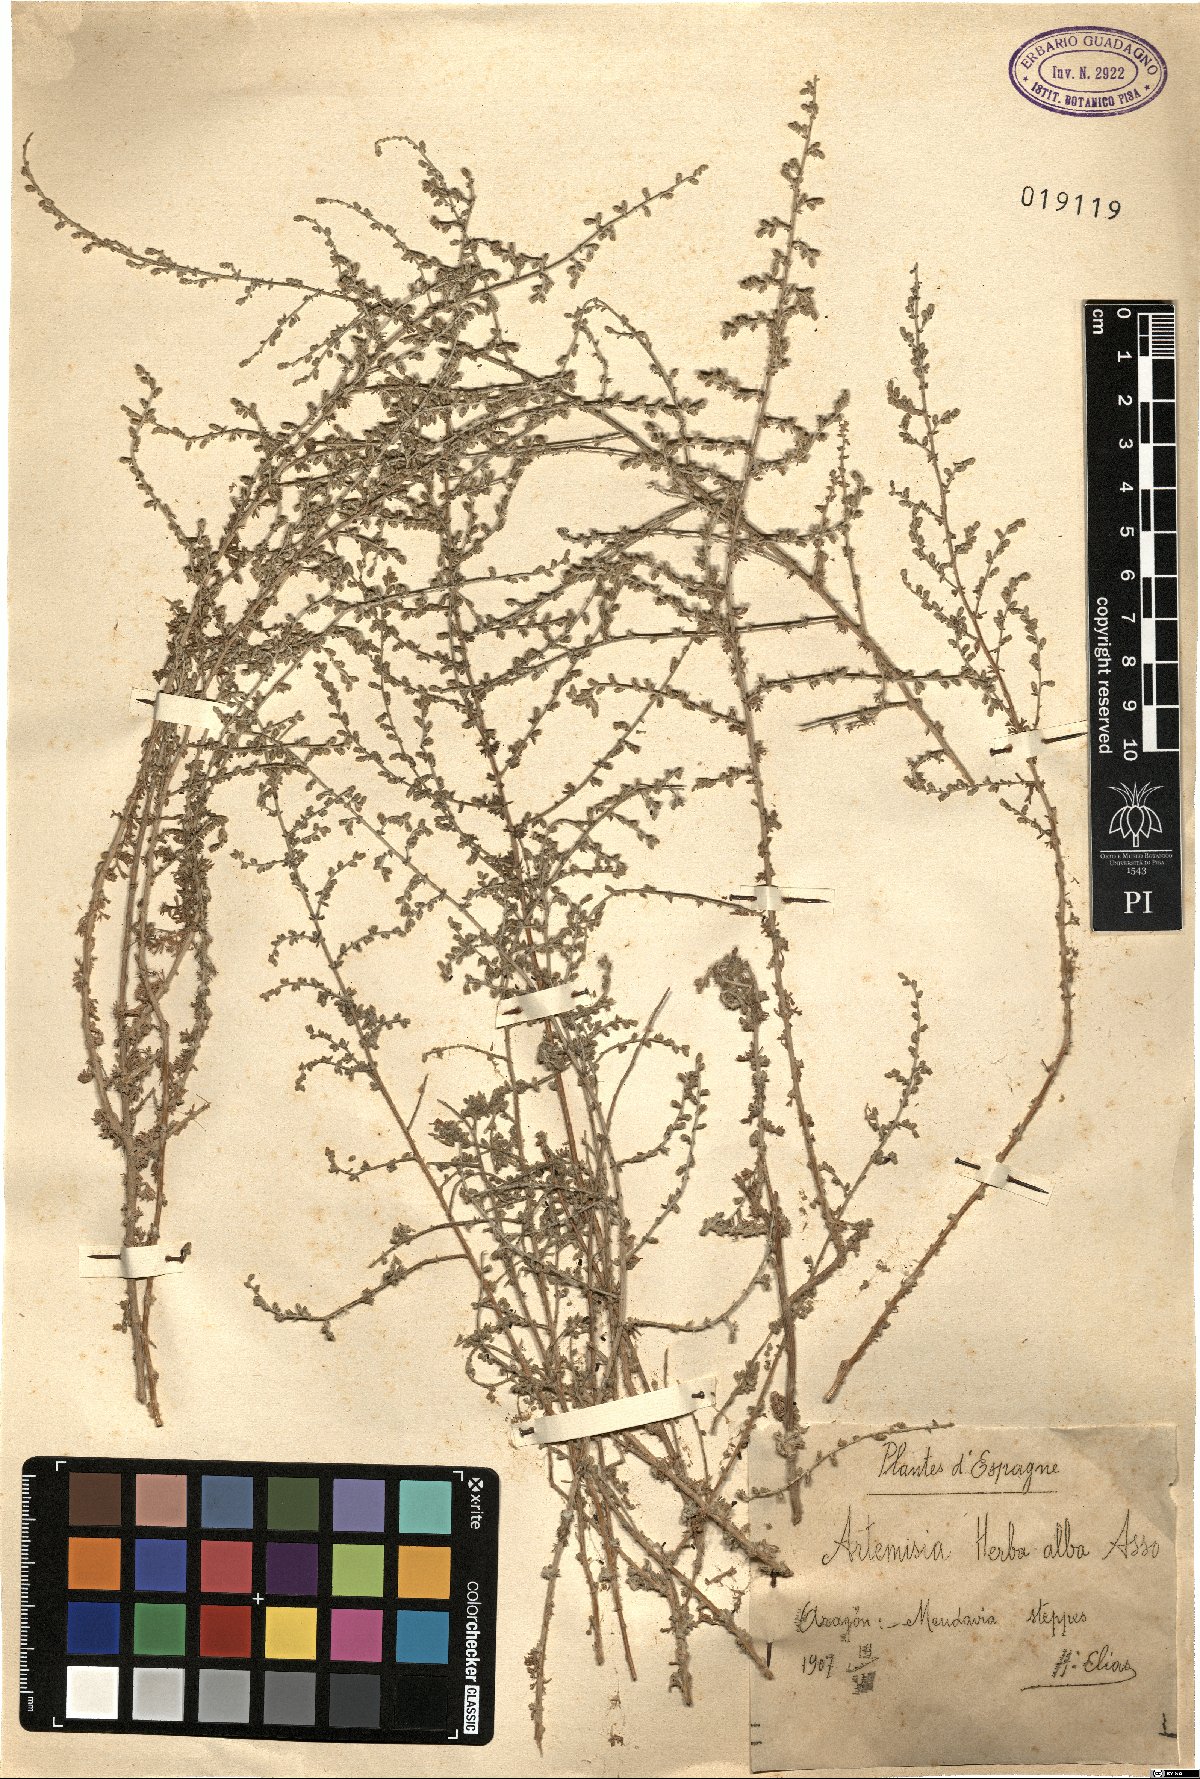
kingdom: Plantae
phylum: Tracheophyta
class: Magnoliopsida
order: Asterales
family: Asteraceae
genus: Artemisia
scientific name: Artemisia herba-alba
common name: White wormwood
